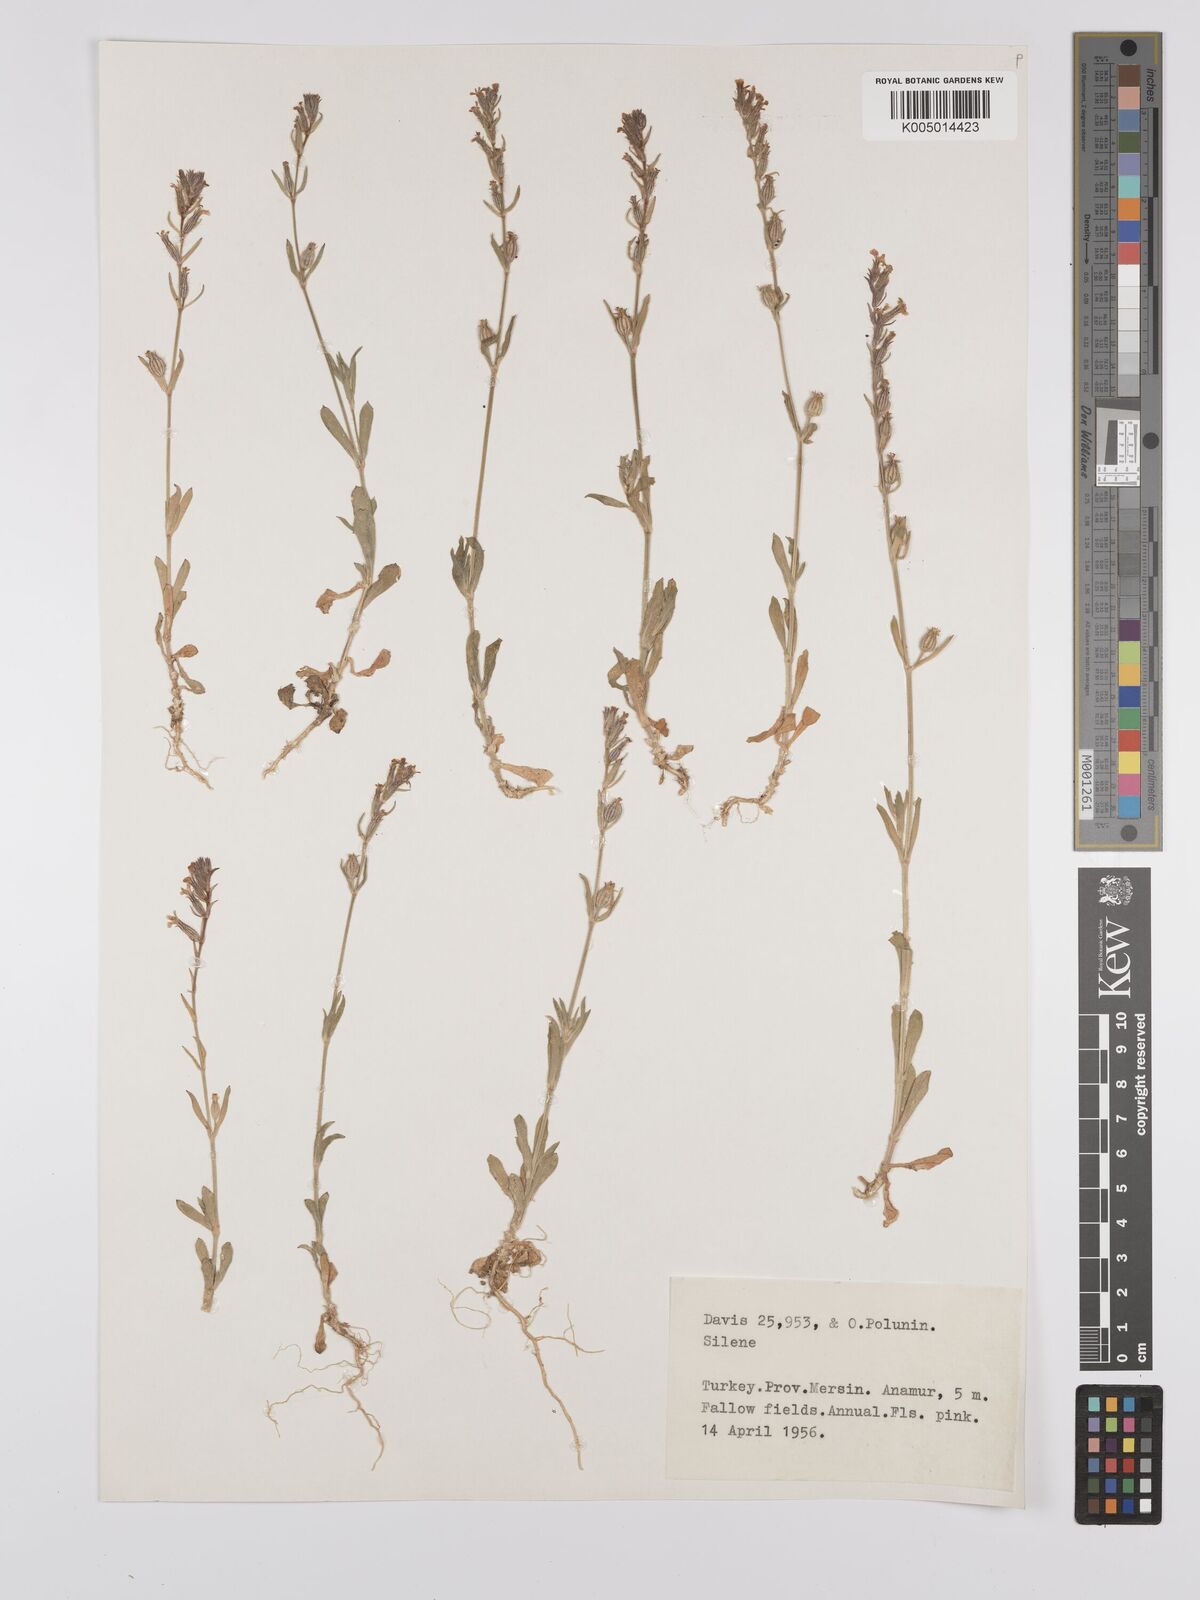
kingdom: Plantae
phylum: Tracheophyta
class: Magnoliopsida
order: Caryophyllales
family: Caryophyllaceae
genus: Silene
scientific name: Silene
